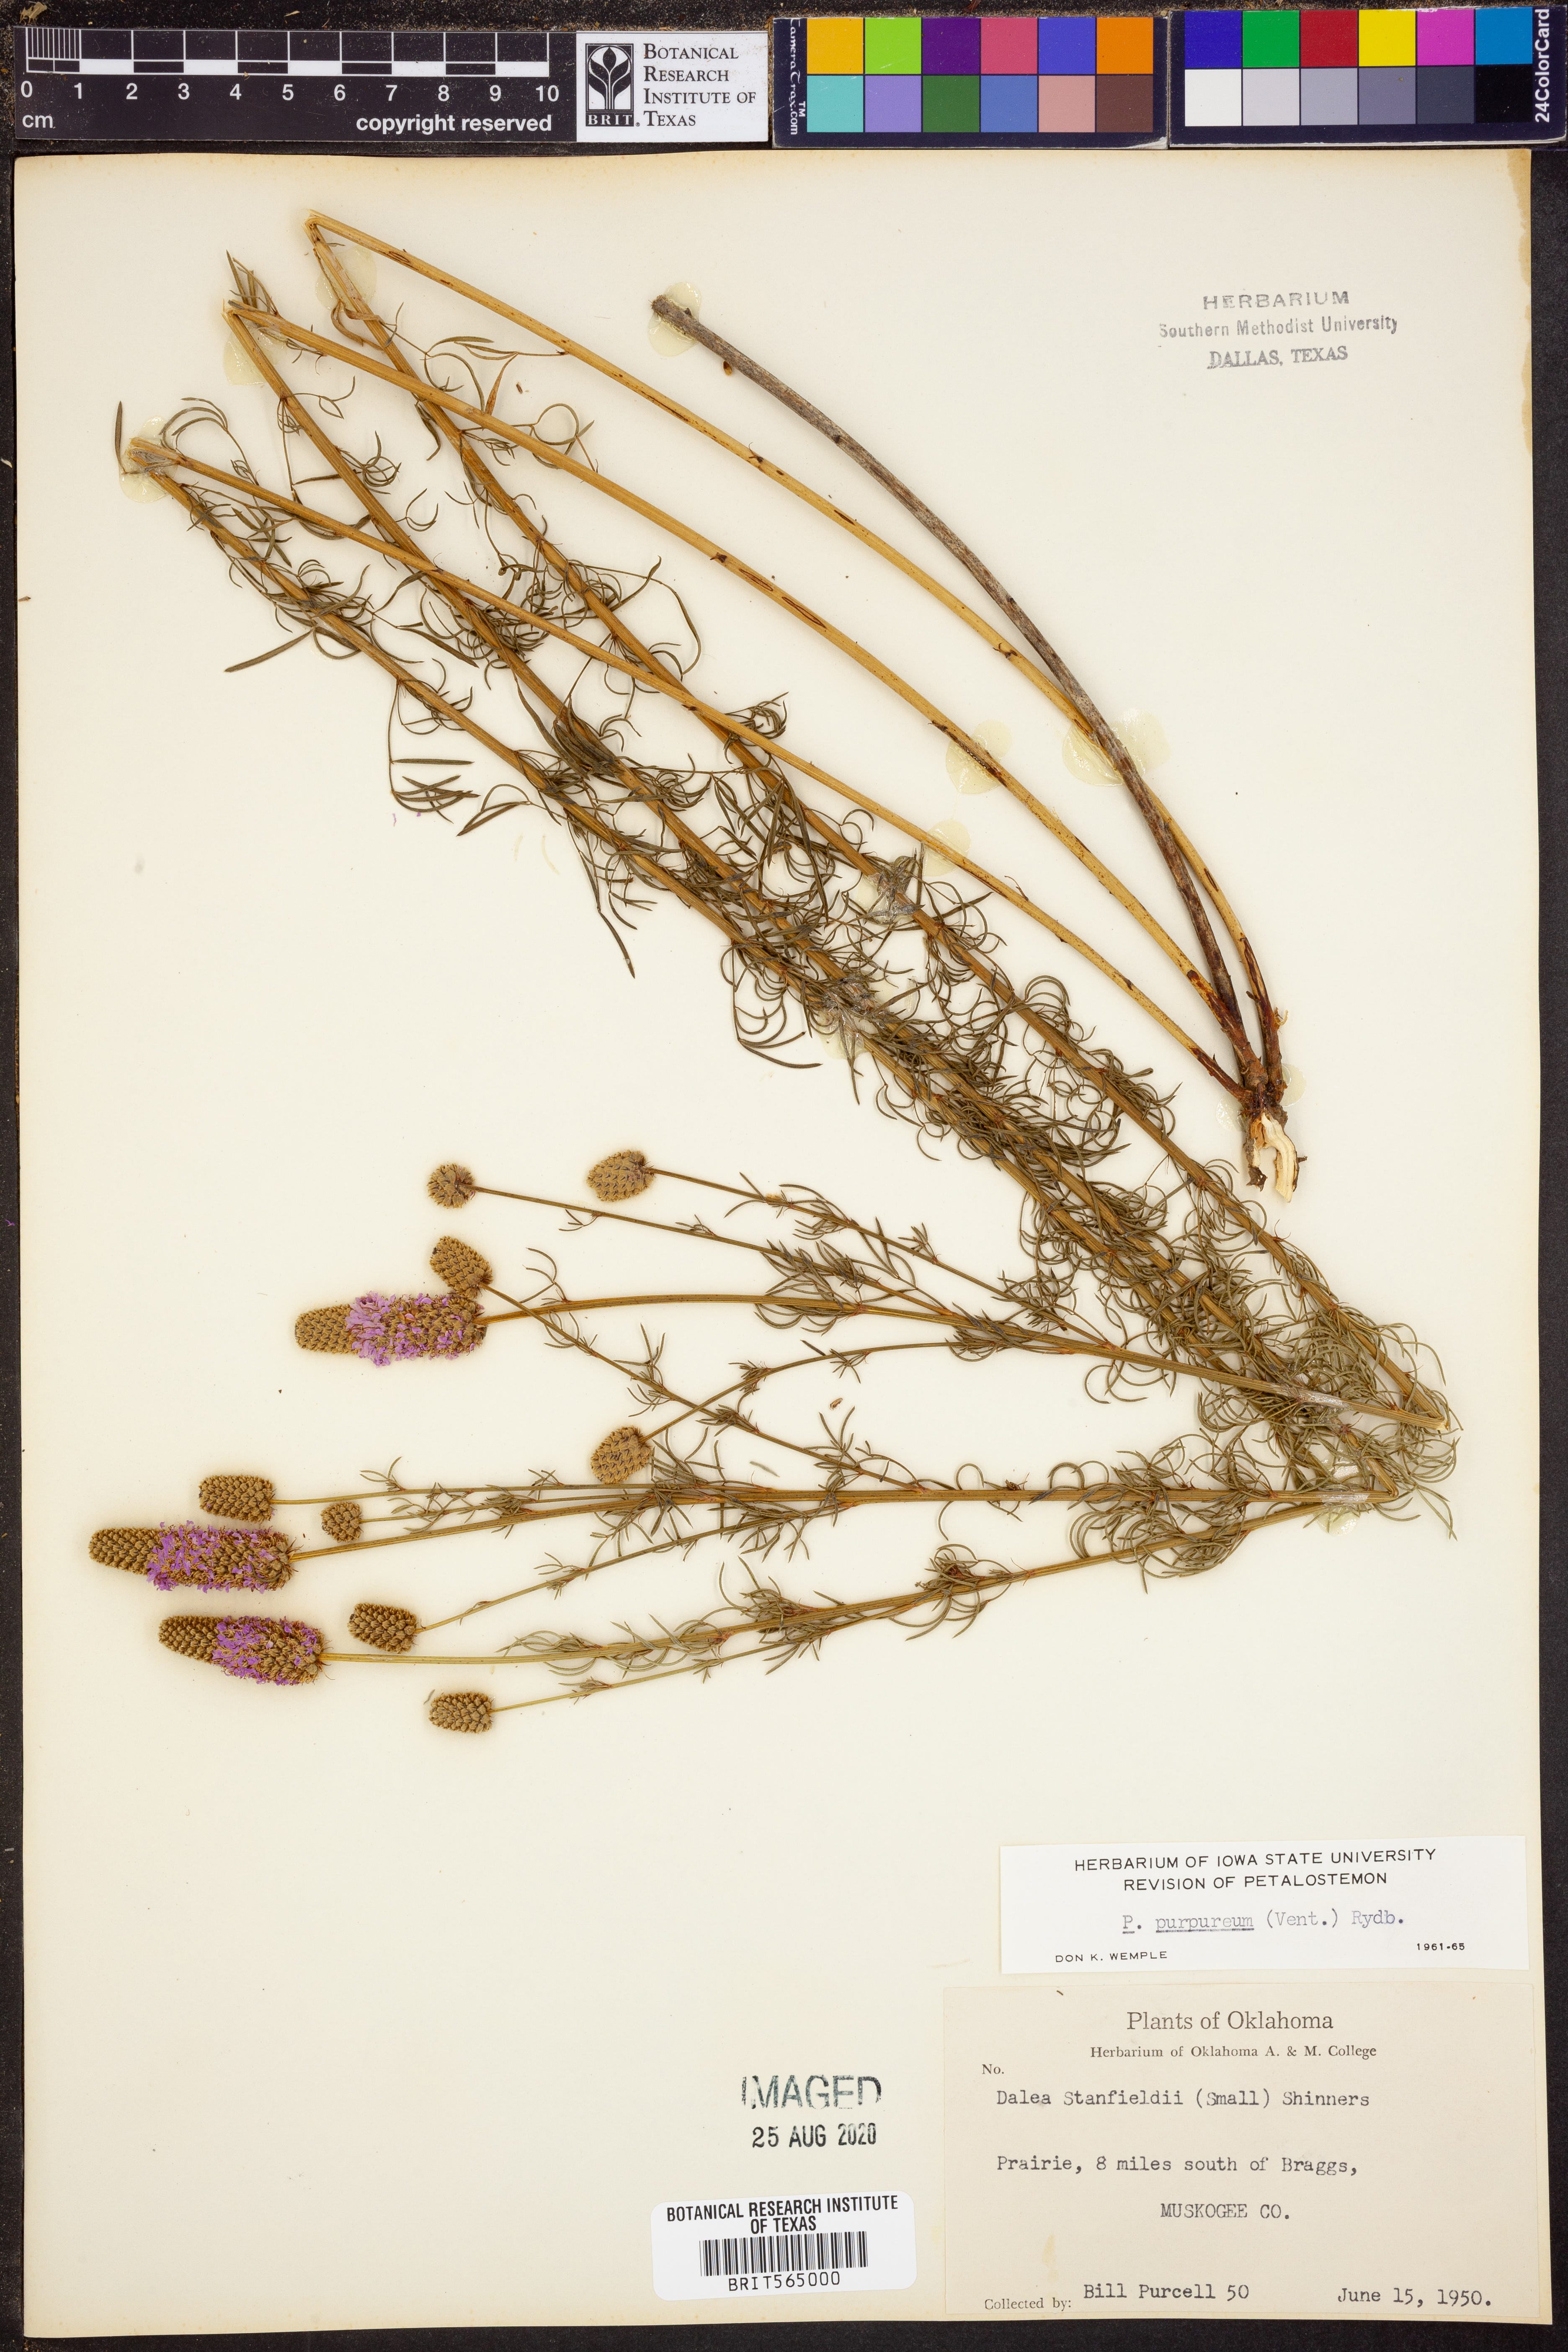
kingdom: Plantae
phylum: Tracheophyta
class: Magnoliopsida
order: Fabales
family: Fabaceae
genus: Dalea
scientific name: Dalea purpurea
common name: Purple prairie-clover
